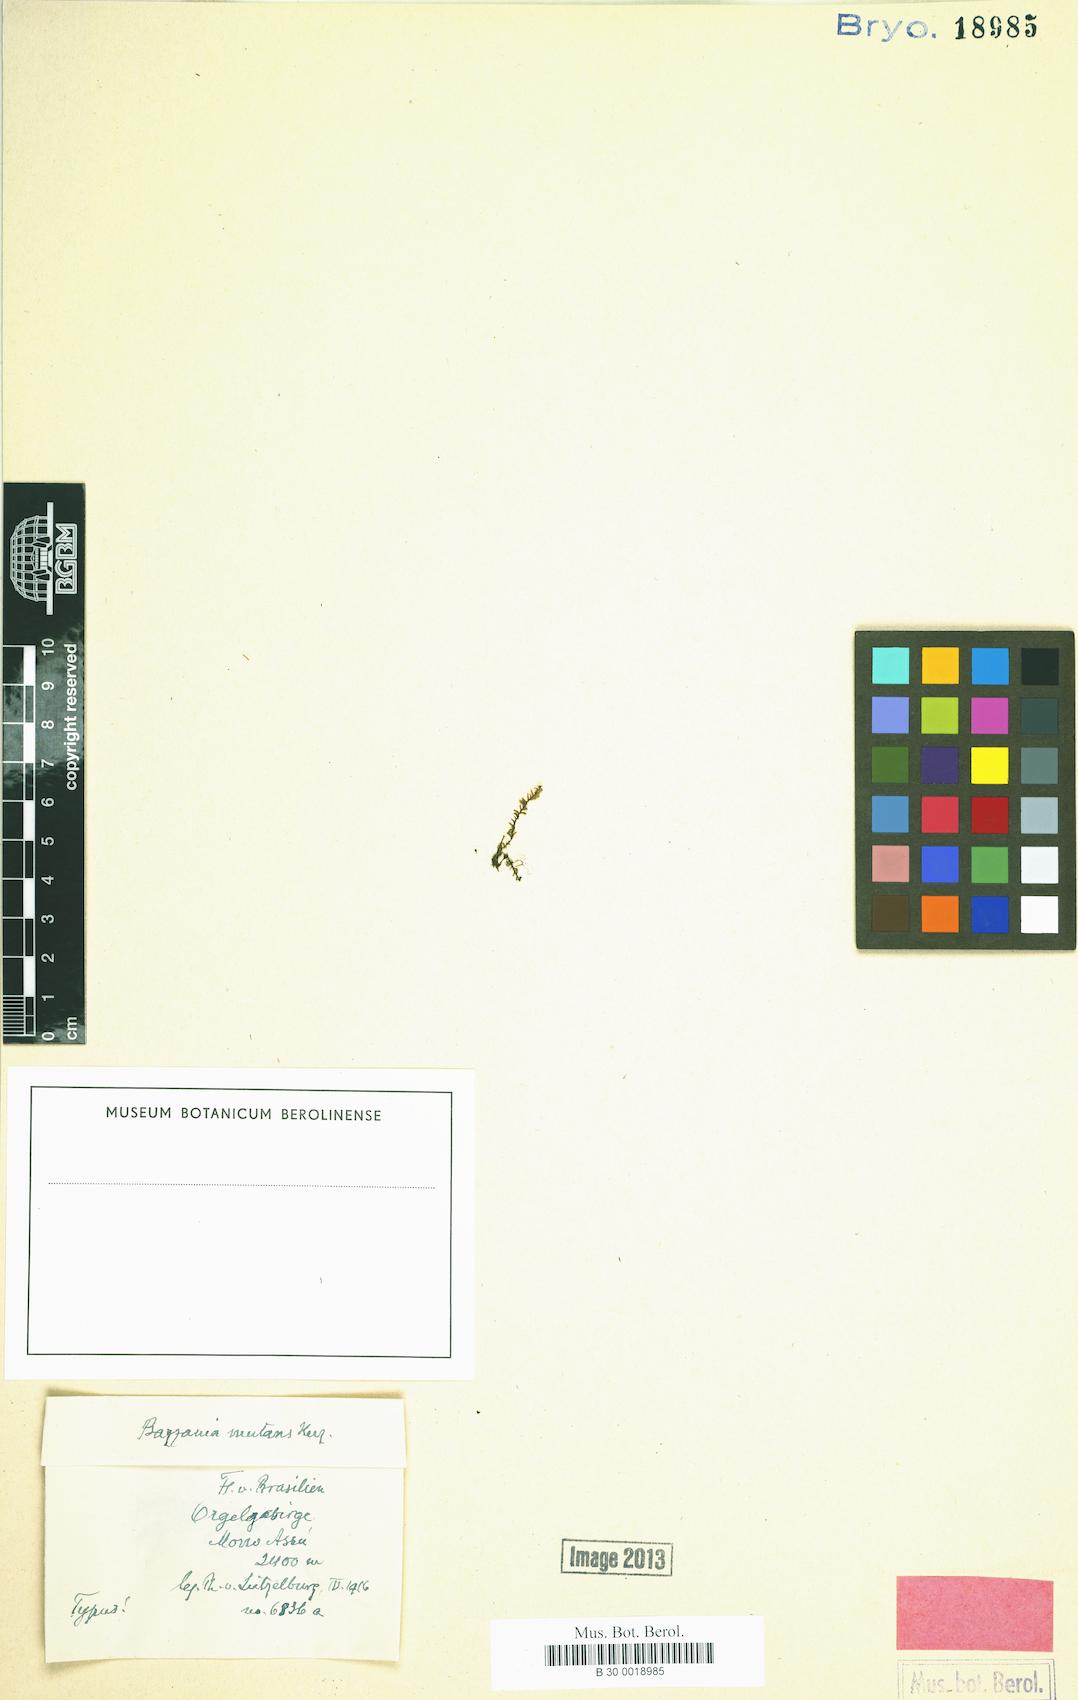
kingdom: Plantae
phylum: Marchantiophyta
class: Jungermanniopsida
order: Jungermanniales
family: Herbertaceae
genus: Triandrophyllum
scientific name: Triandrophyllum subtrifidum
